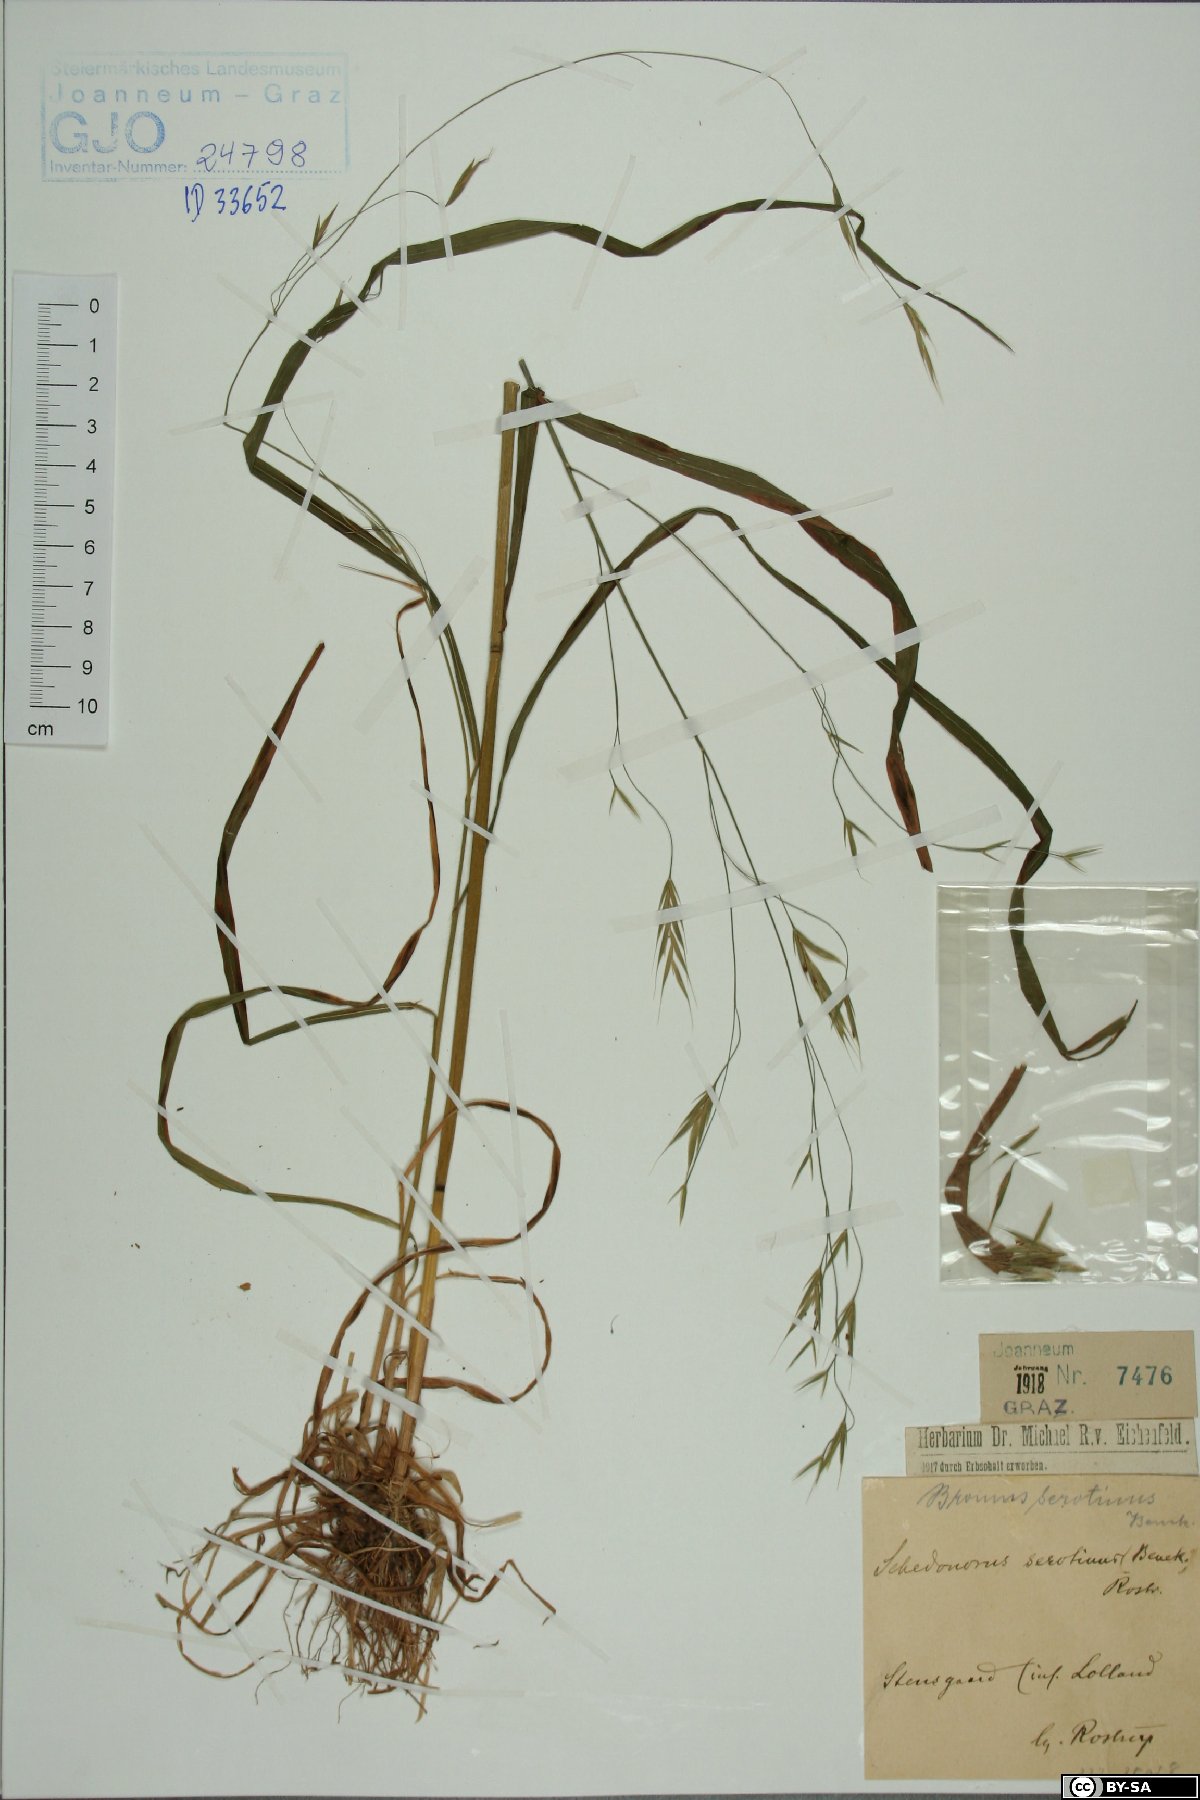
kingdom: Plantae
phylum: Tracheophyta
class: Liliopsida
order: Poales
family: Poaceae
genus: Bromus
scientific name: Bromus ramosus
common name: Hairy brome
